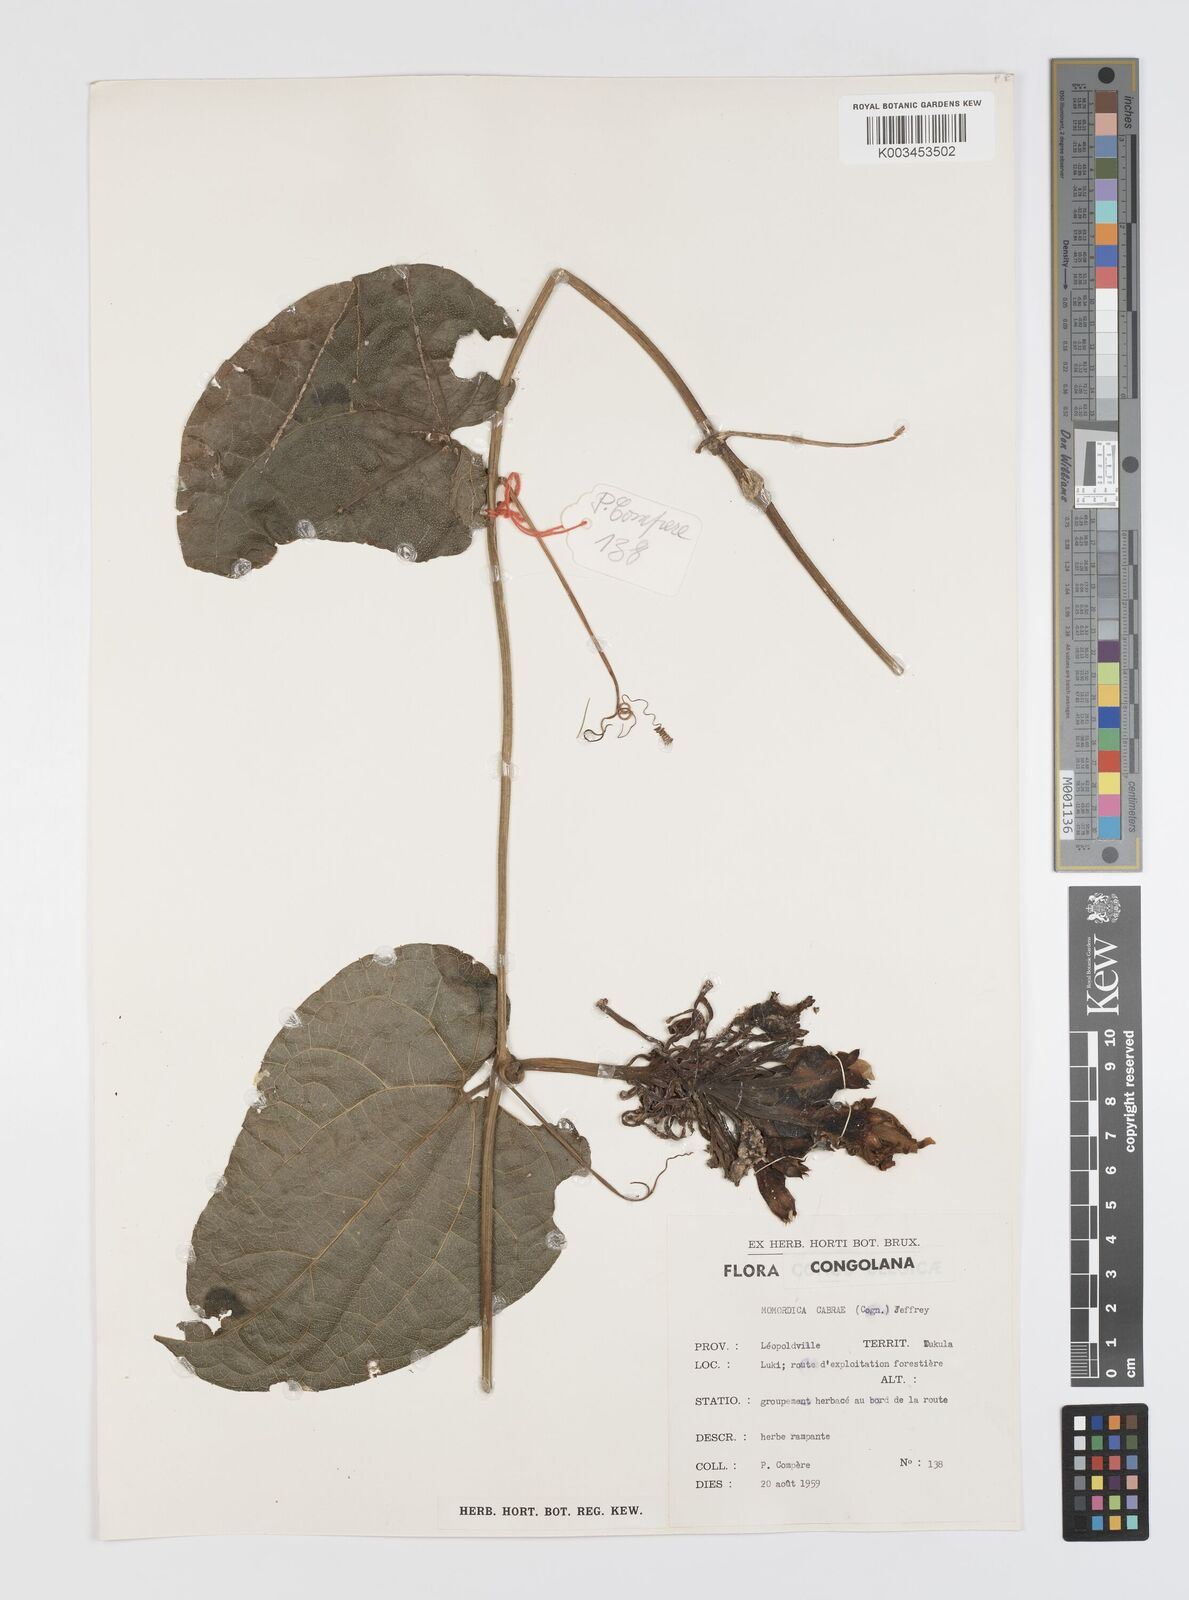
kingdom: Plantae
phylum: Tracheophyta
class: Magnoliopsida
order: Cucurbitales
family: Cucurbitaceae
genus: Momordica
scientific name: Momordica cabrae
